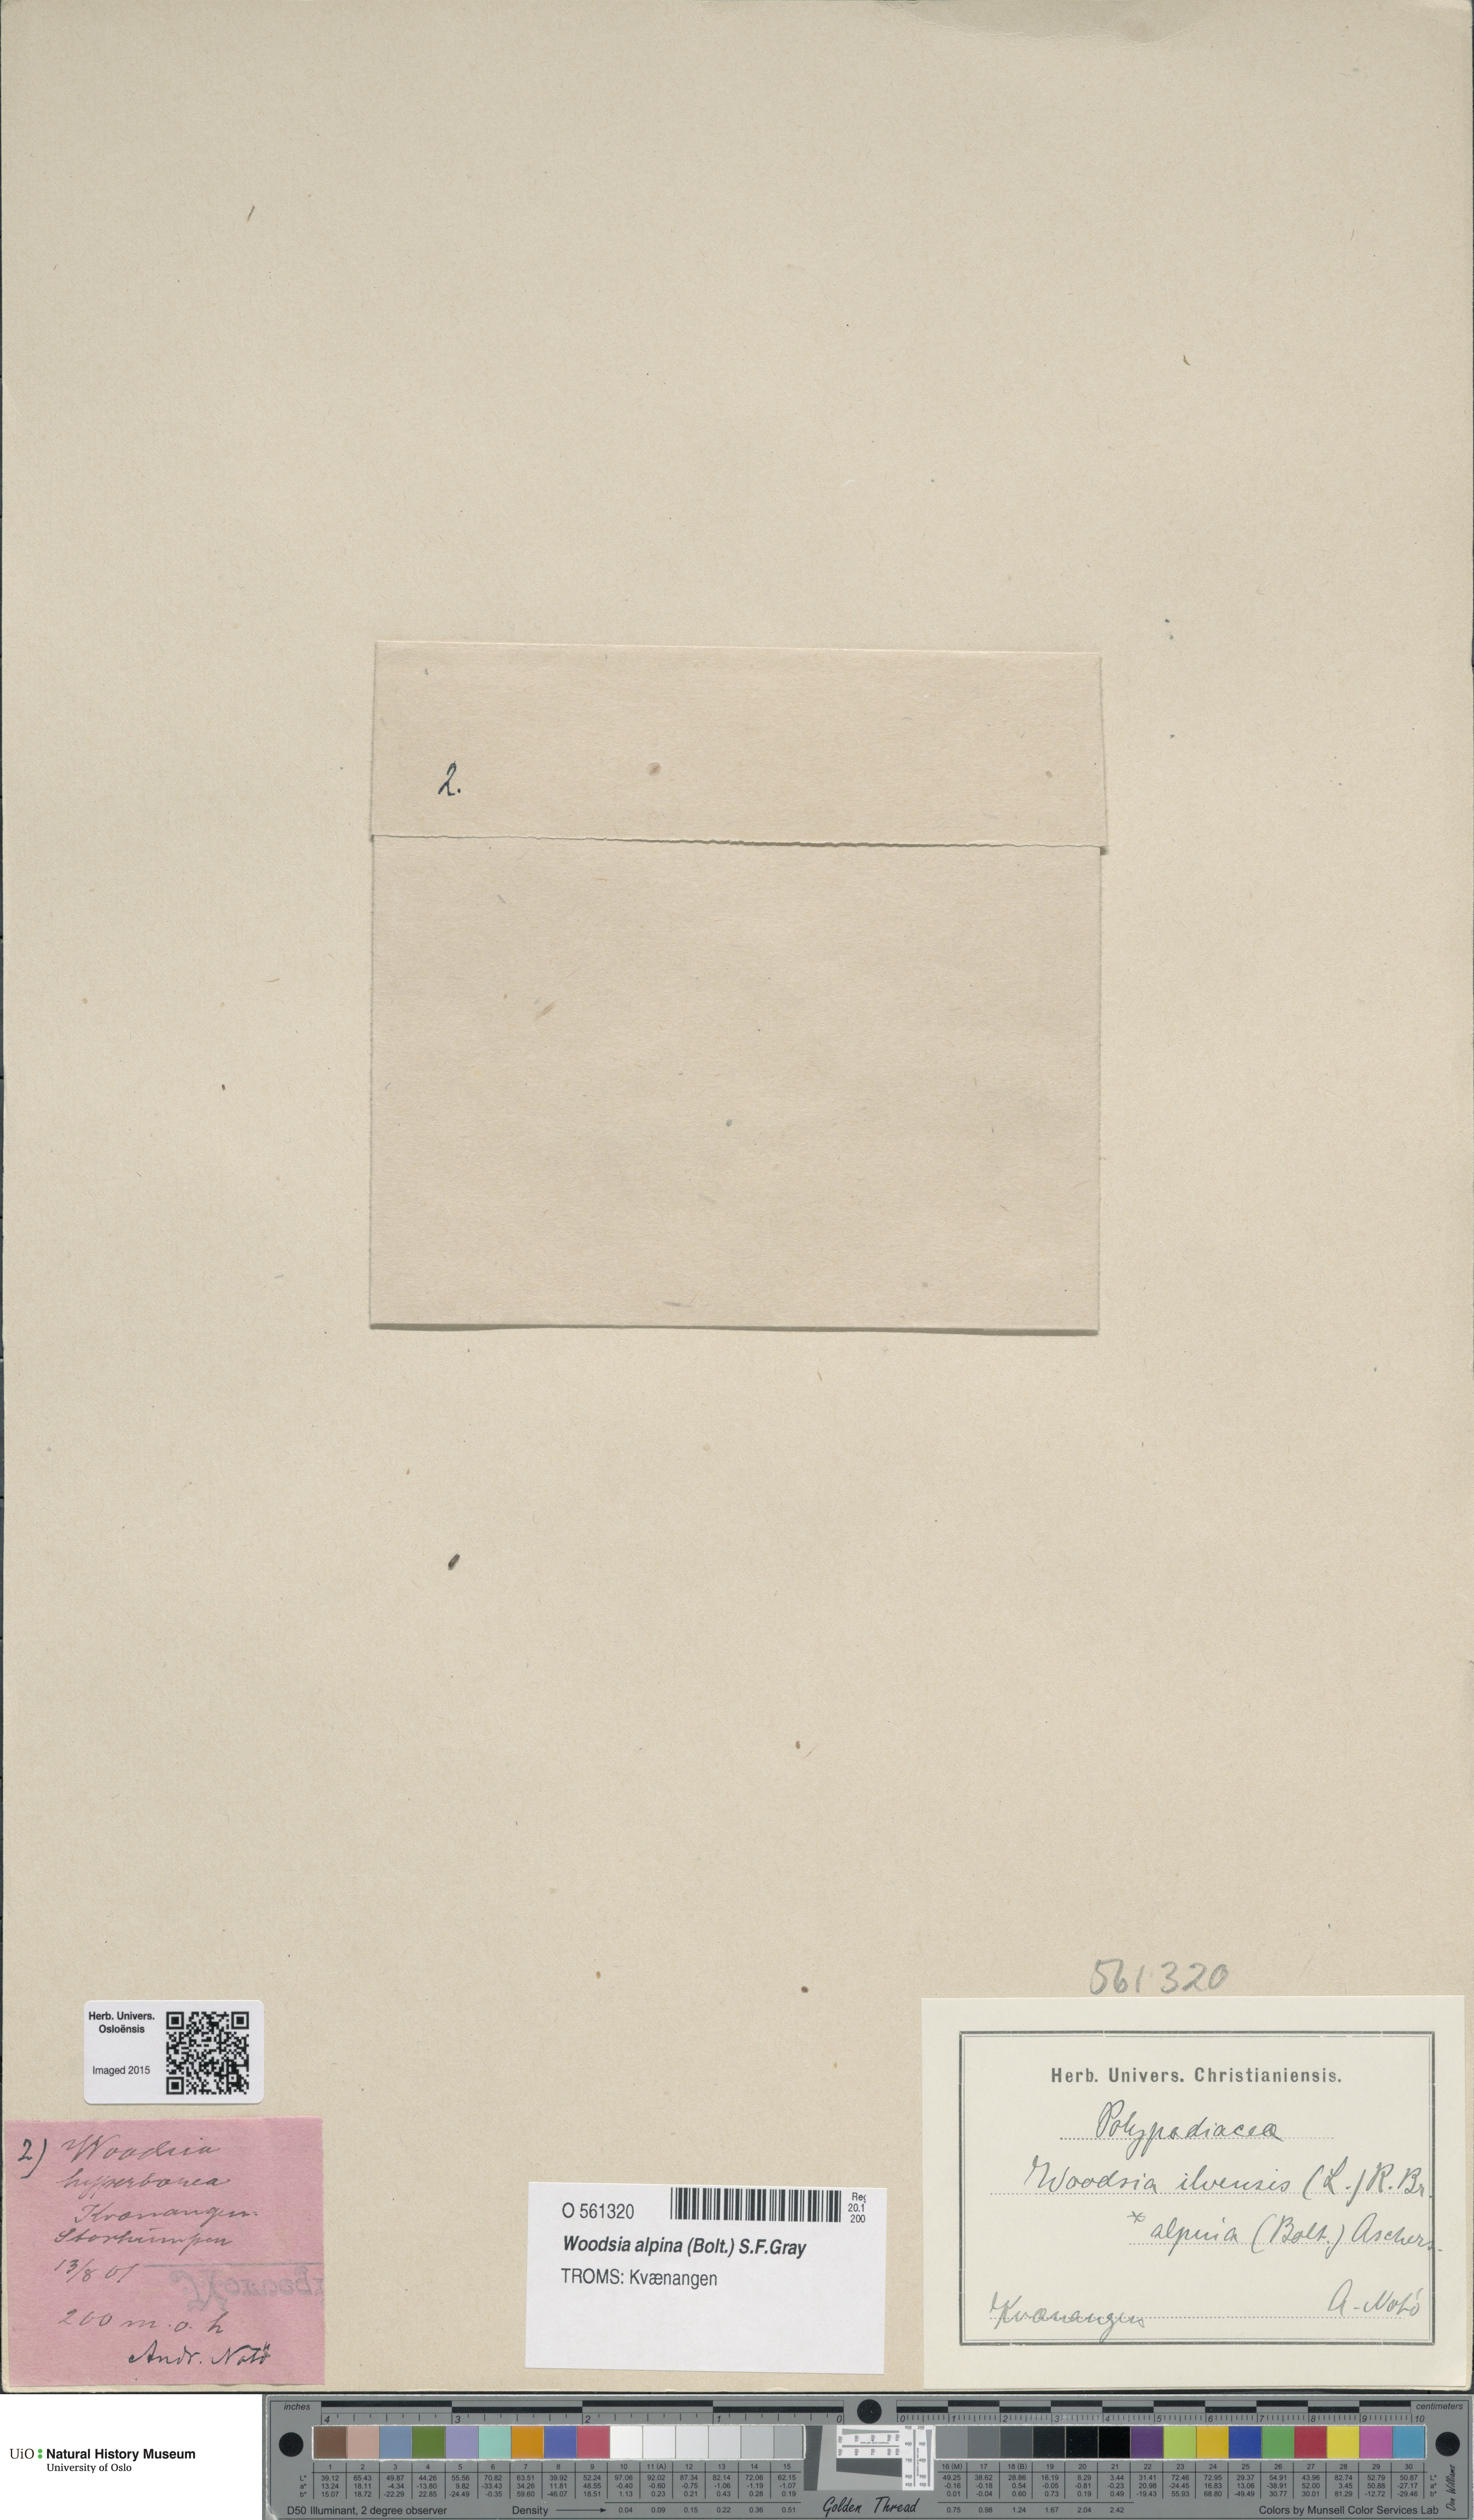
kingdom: Plantae
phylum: Tracheophyta
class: Polypodiopsida
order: Polypodiales
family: Woodsiaceae
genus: Woodsia
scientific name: Woodsia alpina
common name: Alpine woodsia
